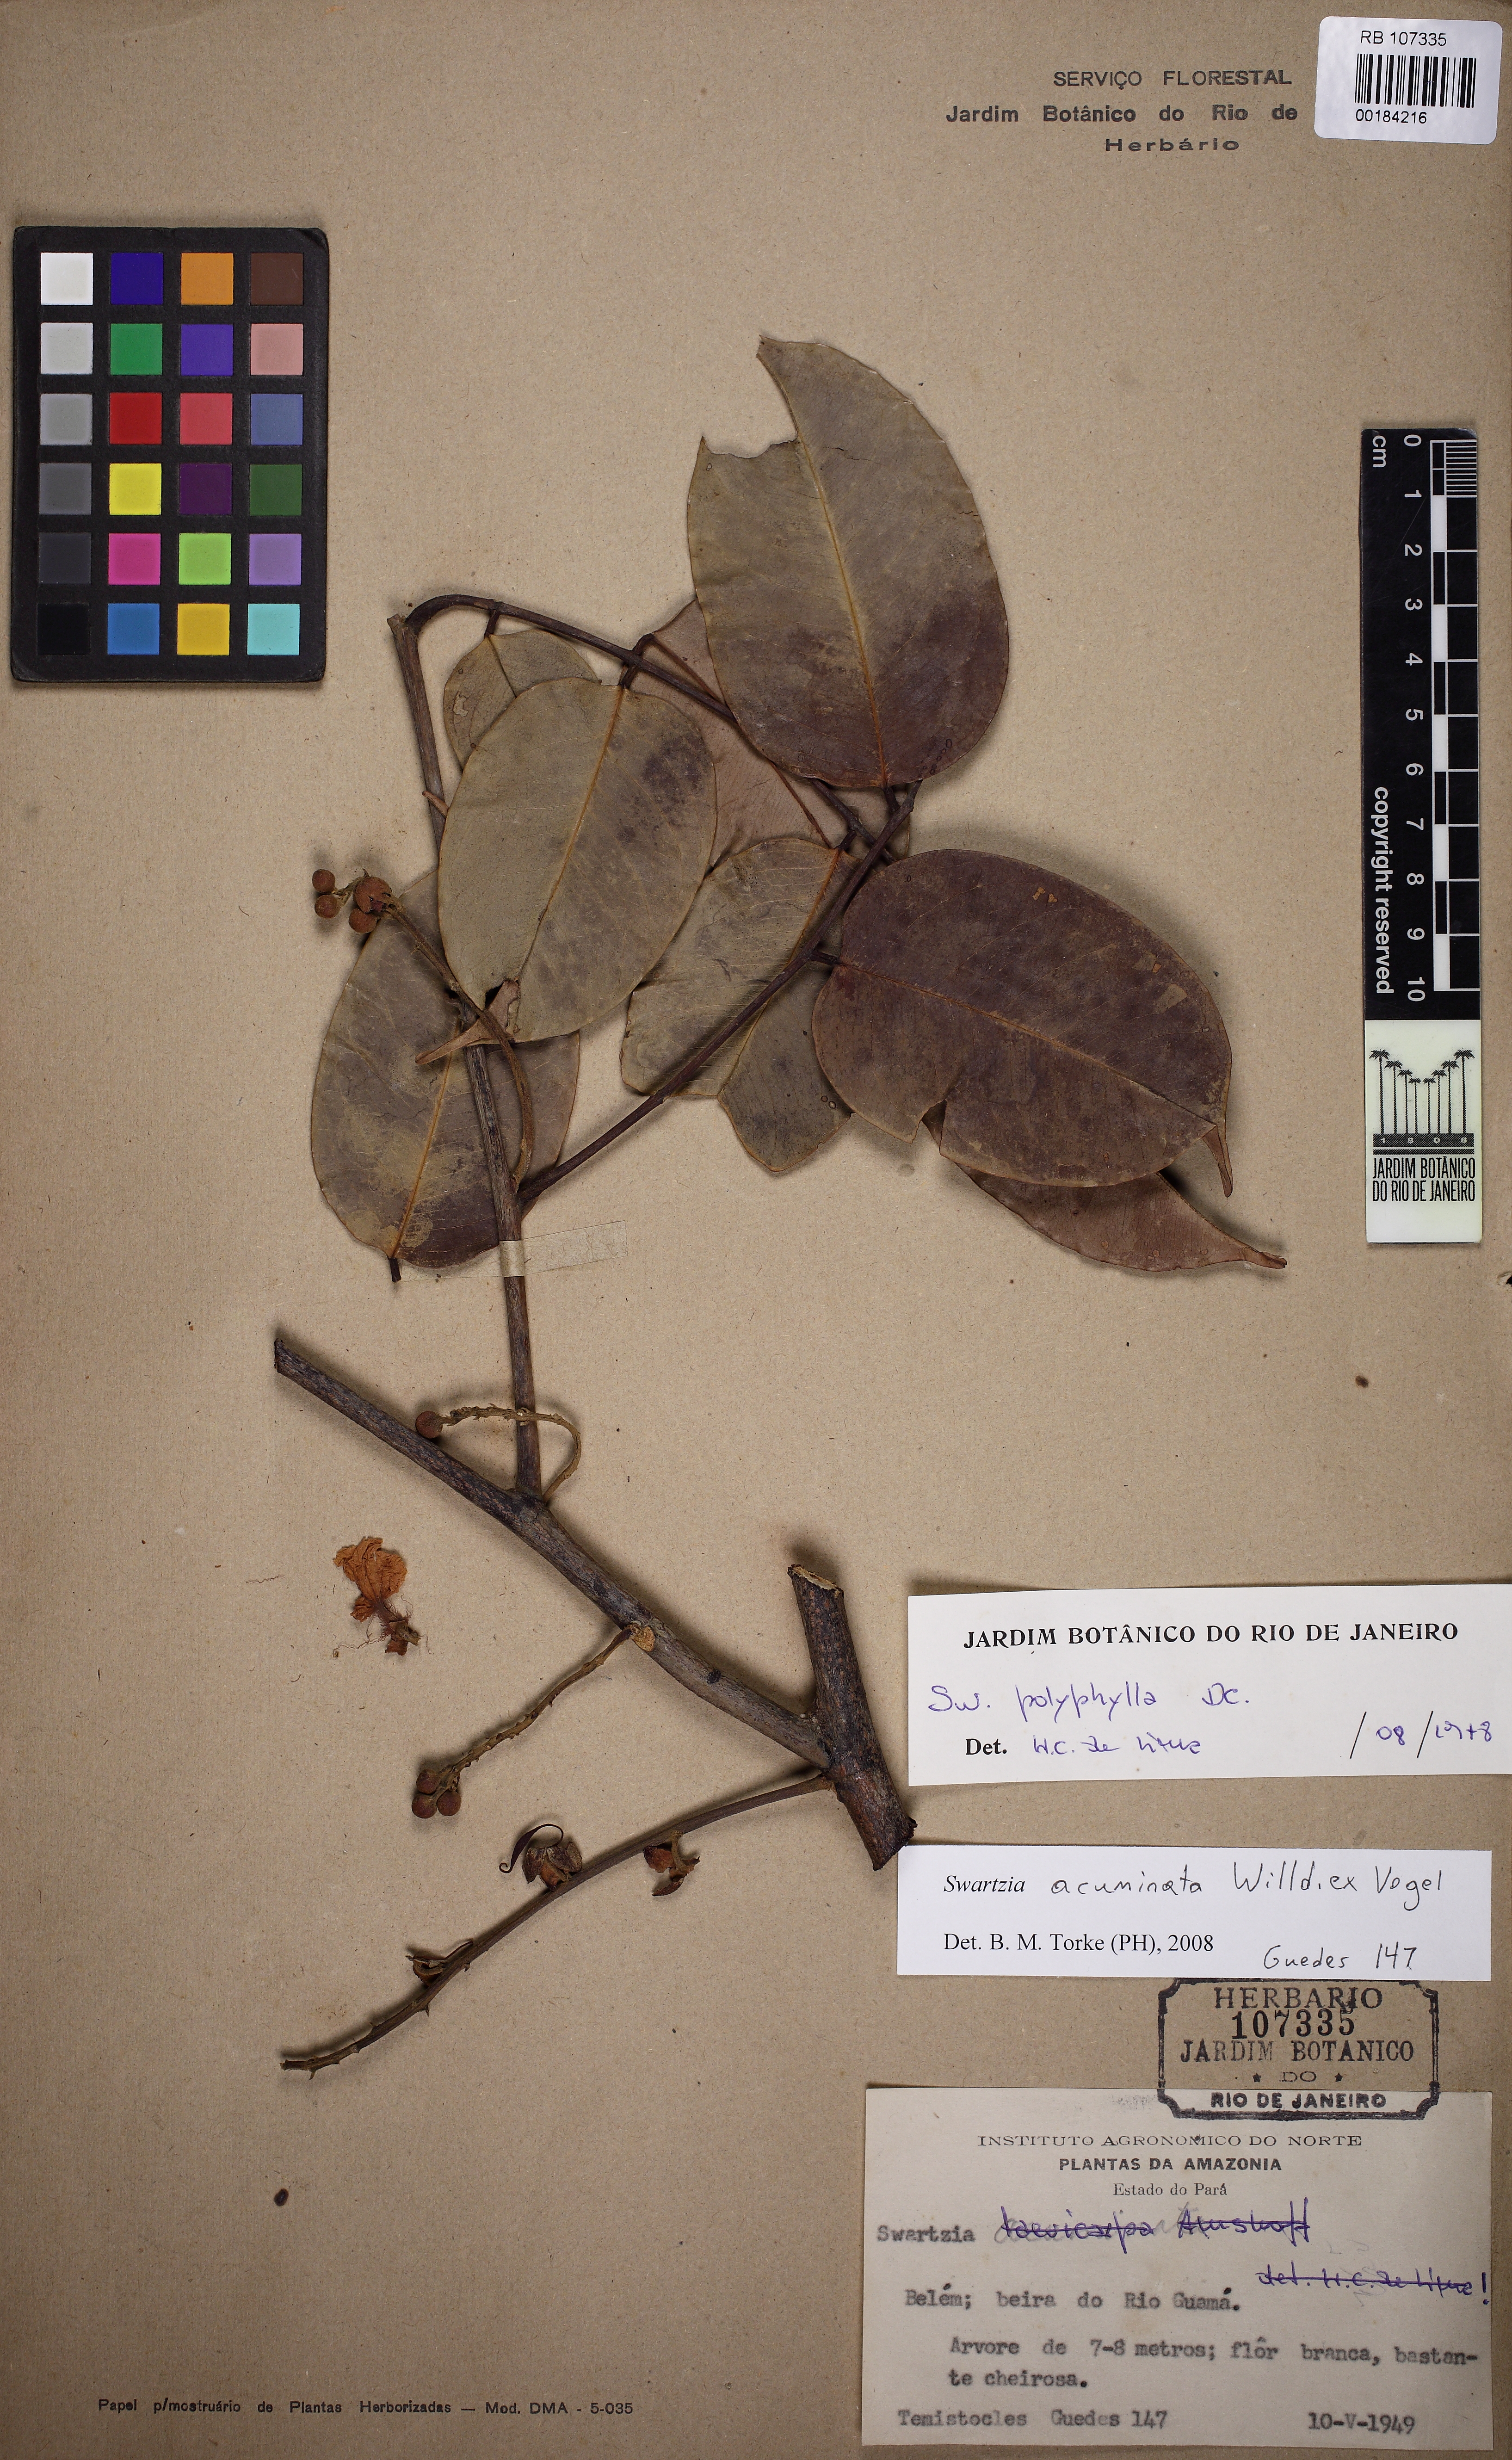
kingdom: Plantae
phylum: Tracheophyta
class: Magnoliopsida
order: Fabales
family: Fabaceae
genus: Swartzia
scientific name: Swartzia acuminata
